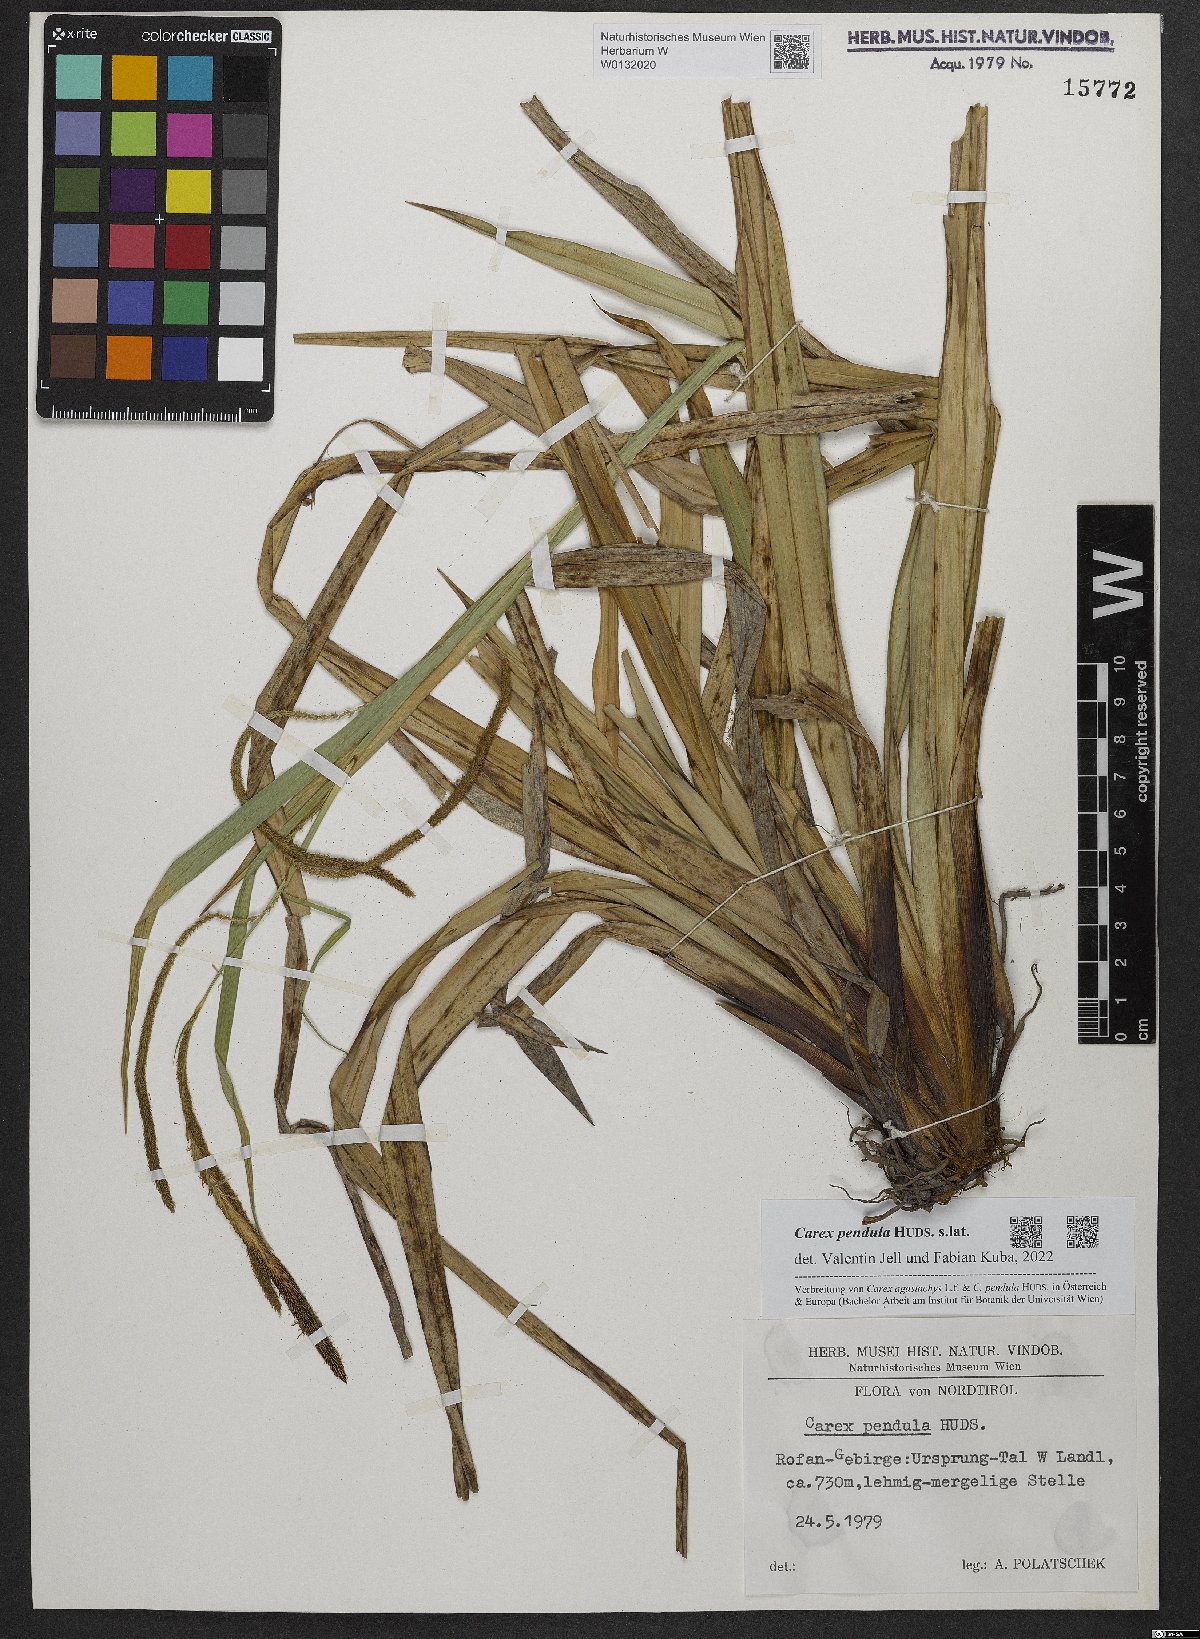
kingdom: Plantae
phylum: Tracheophyta
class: Liliopsida
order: Poales
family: Cyperaceae
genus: Carex
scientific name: Carex pendula
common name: Pendulous sedge
